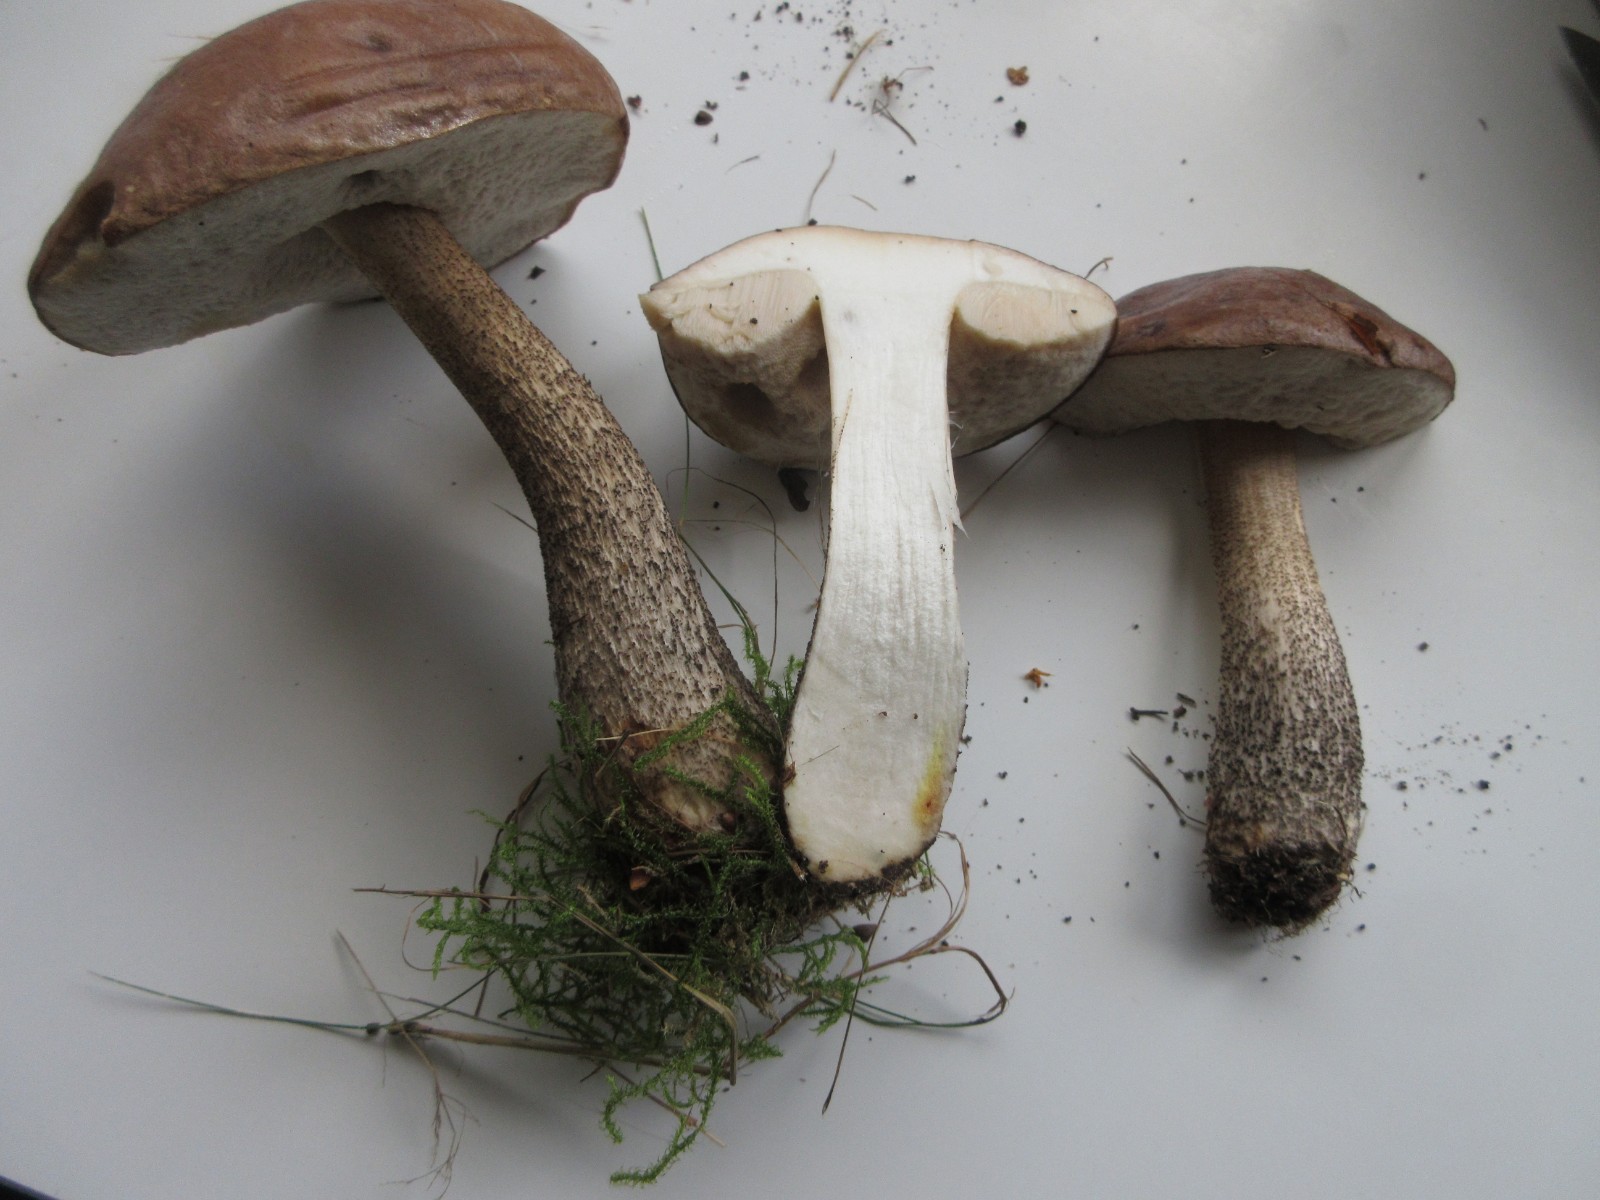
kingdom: Fungi
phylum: Basidiomycota
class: Agaricomycetes
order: Boletales
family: Boletaceae
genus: Leccinum
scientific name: Leccinum scabrum
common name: brun skælrørhat
